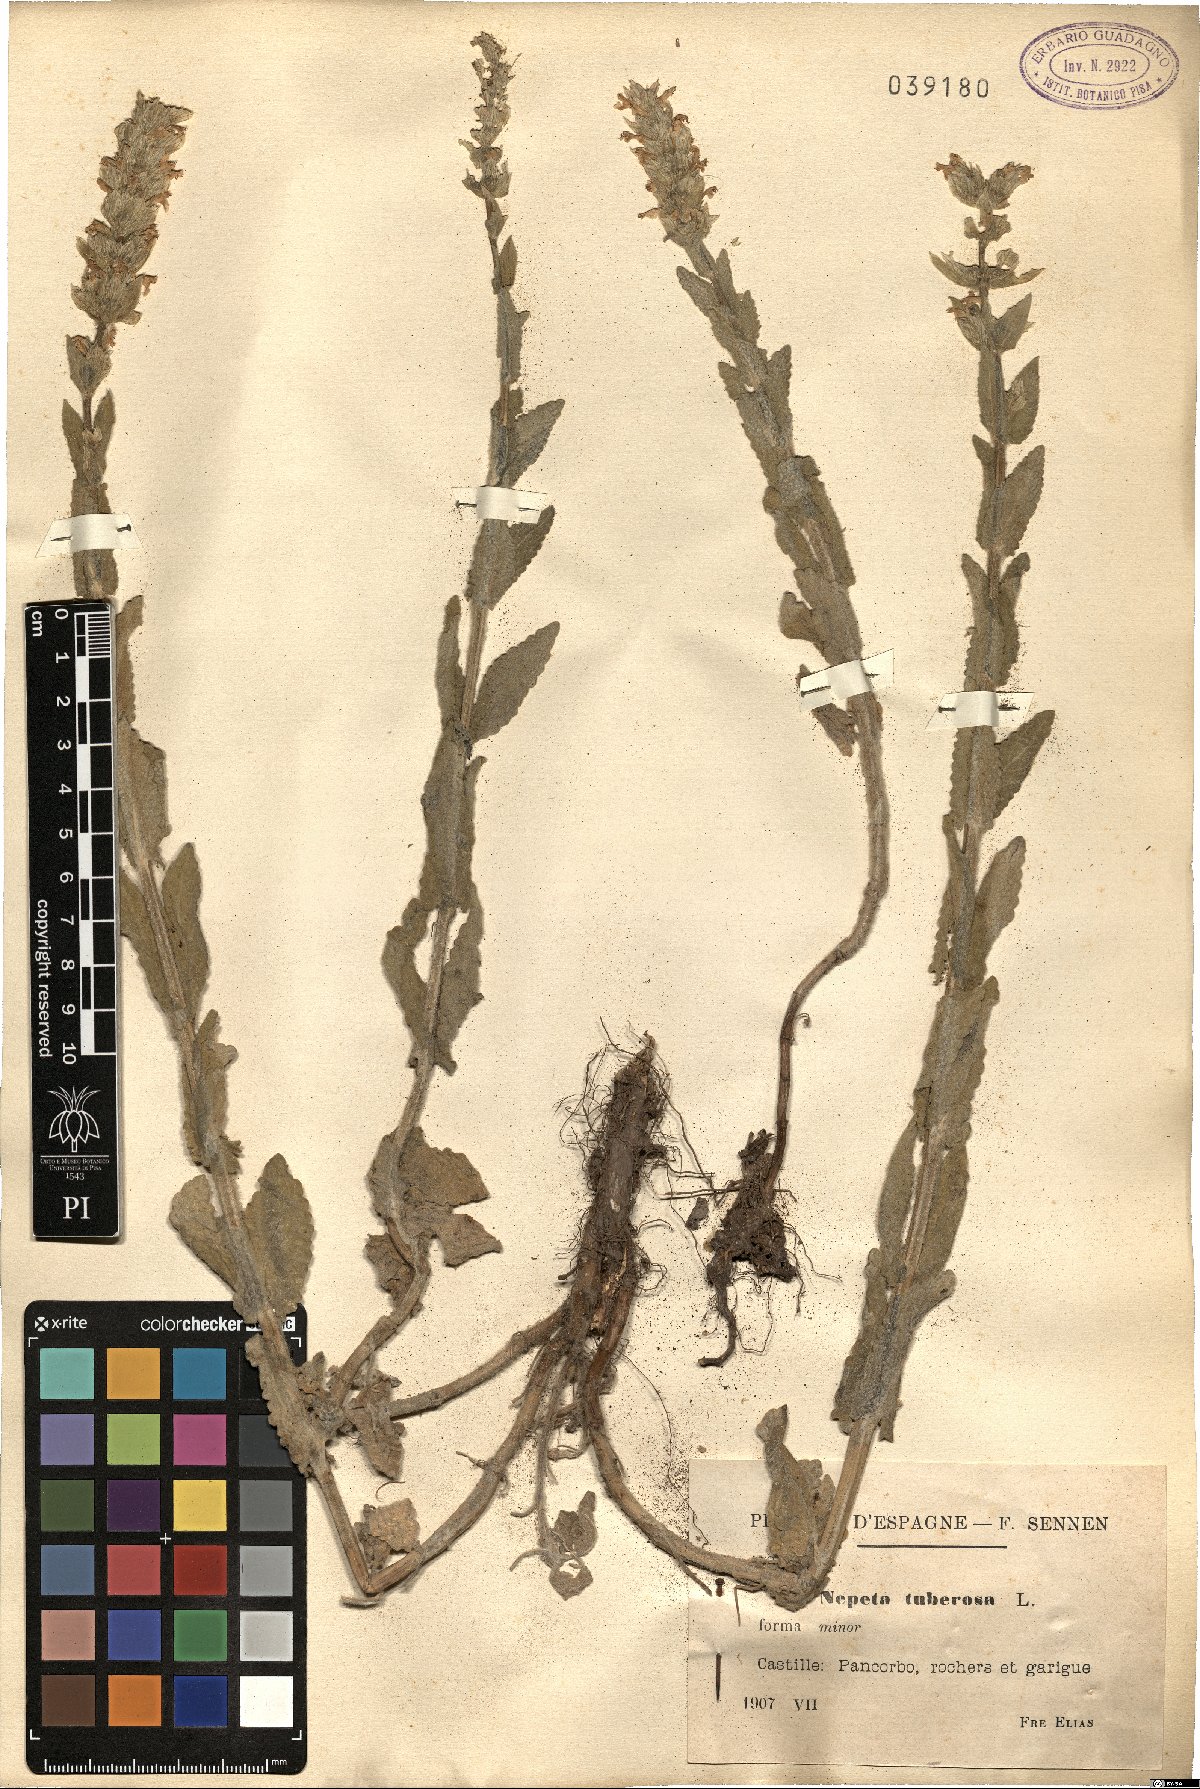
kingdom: Plantae
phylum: Tracheophyta
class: Magnoliopsida
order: Lamiales
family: Lamiaceae
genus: Nepeta
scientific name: Nepeta tuberosa
